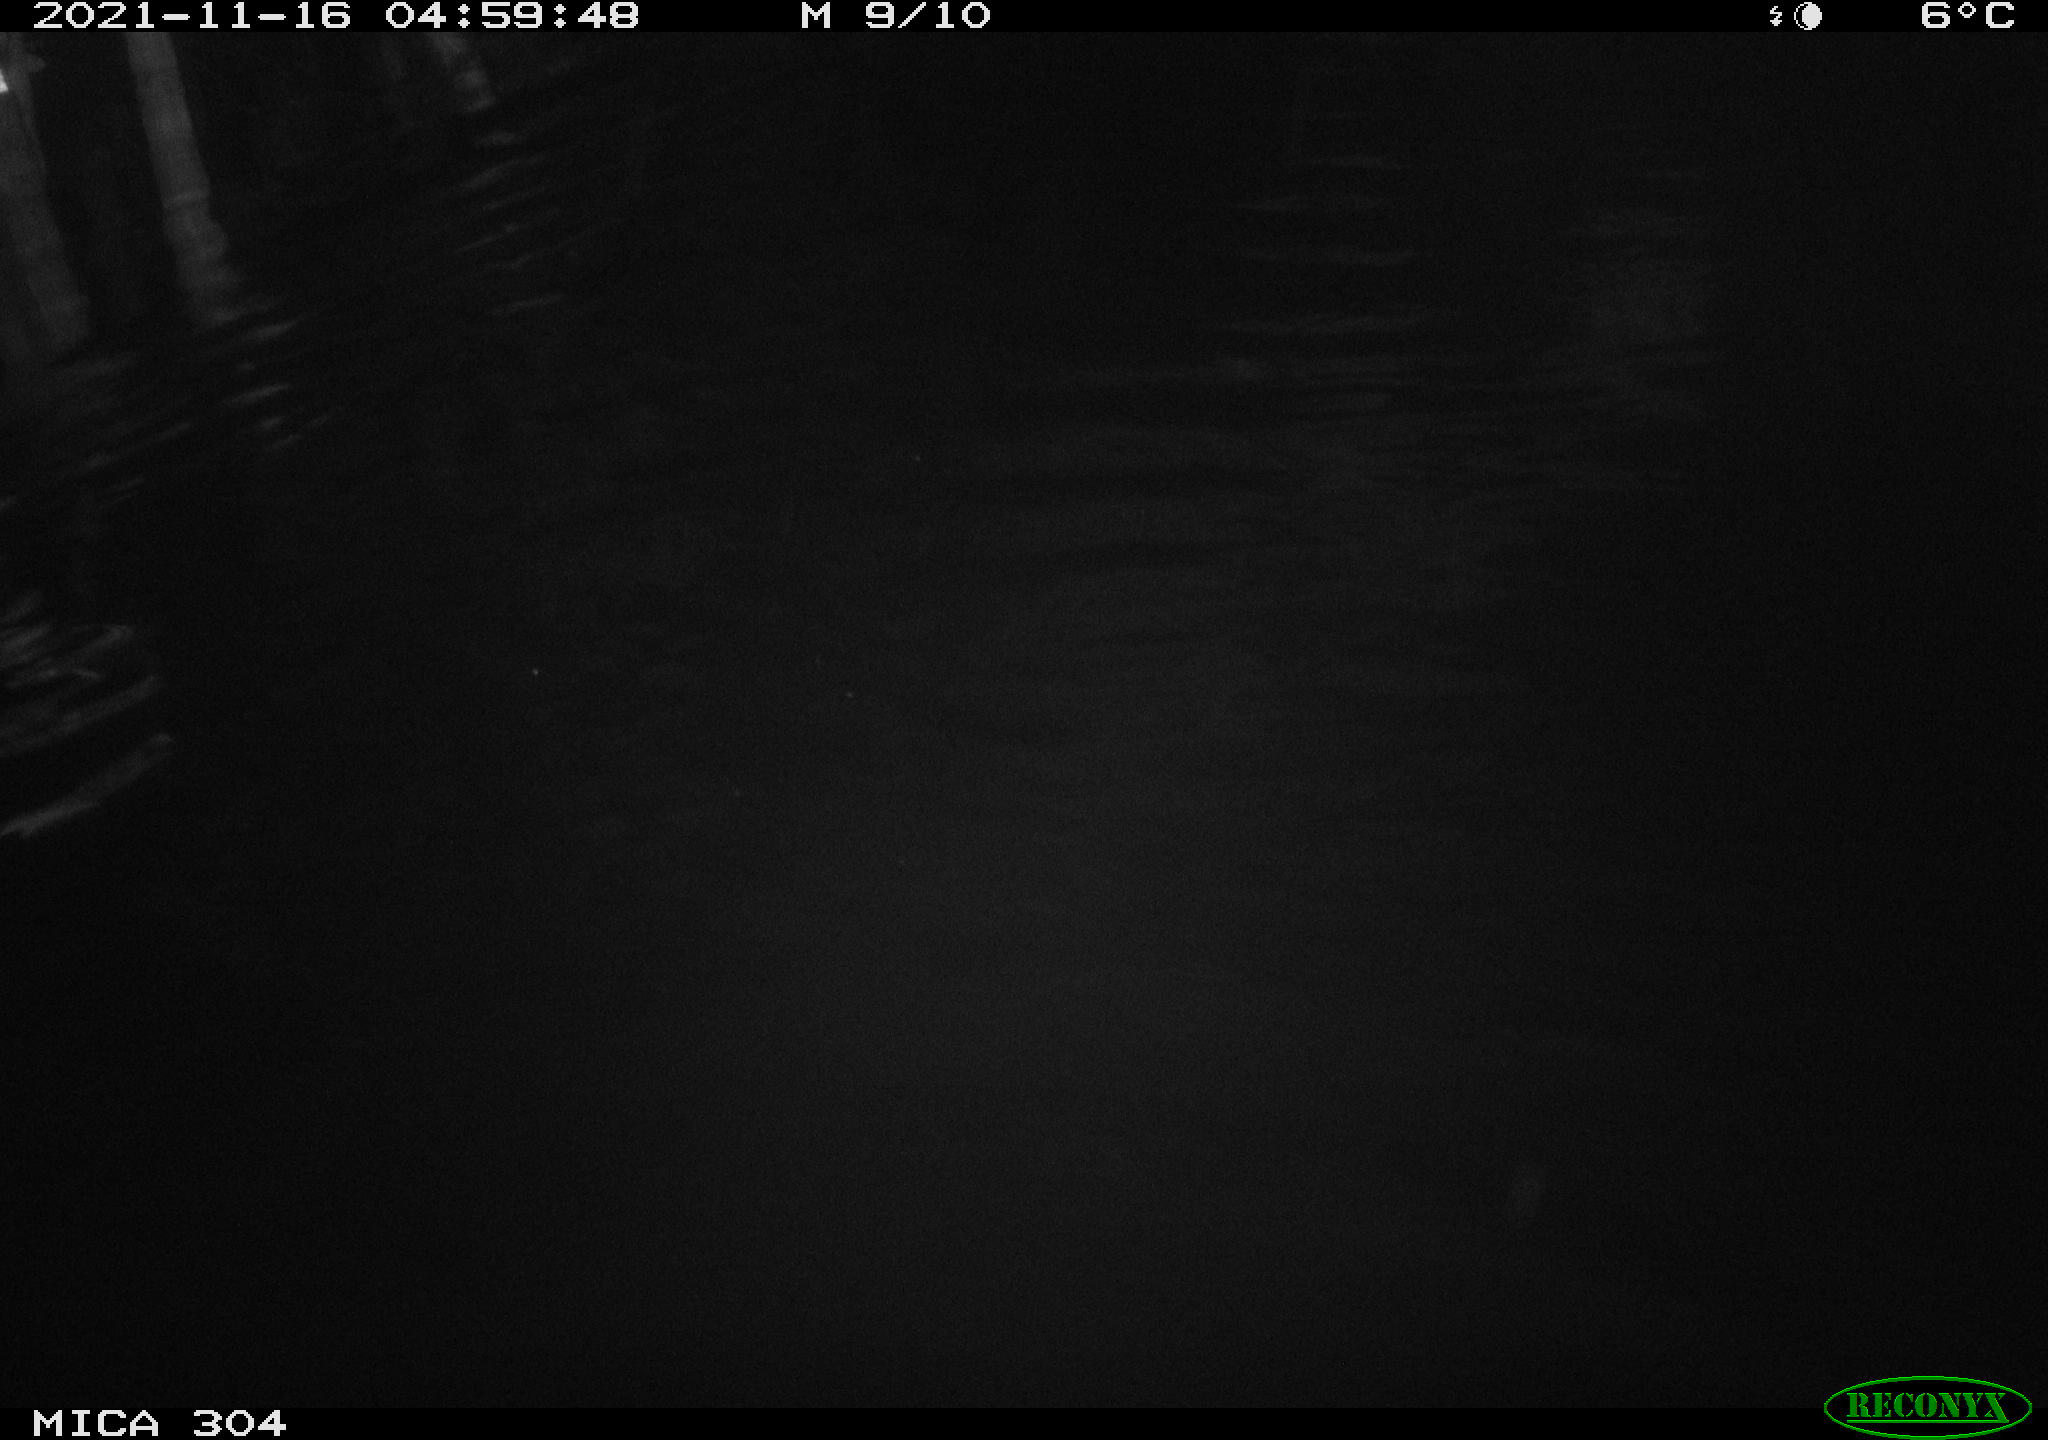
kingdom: Animalia
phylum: Chordata
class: Mammalia
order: Rodentia
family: Cricetidae
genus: Ondatra
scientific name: Ondatra zibethicus
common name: Muskrat
